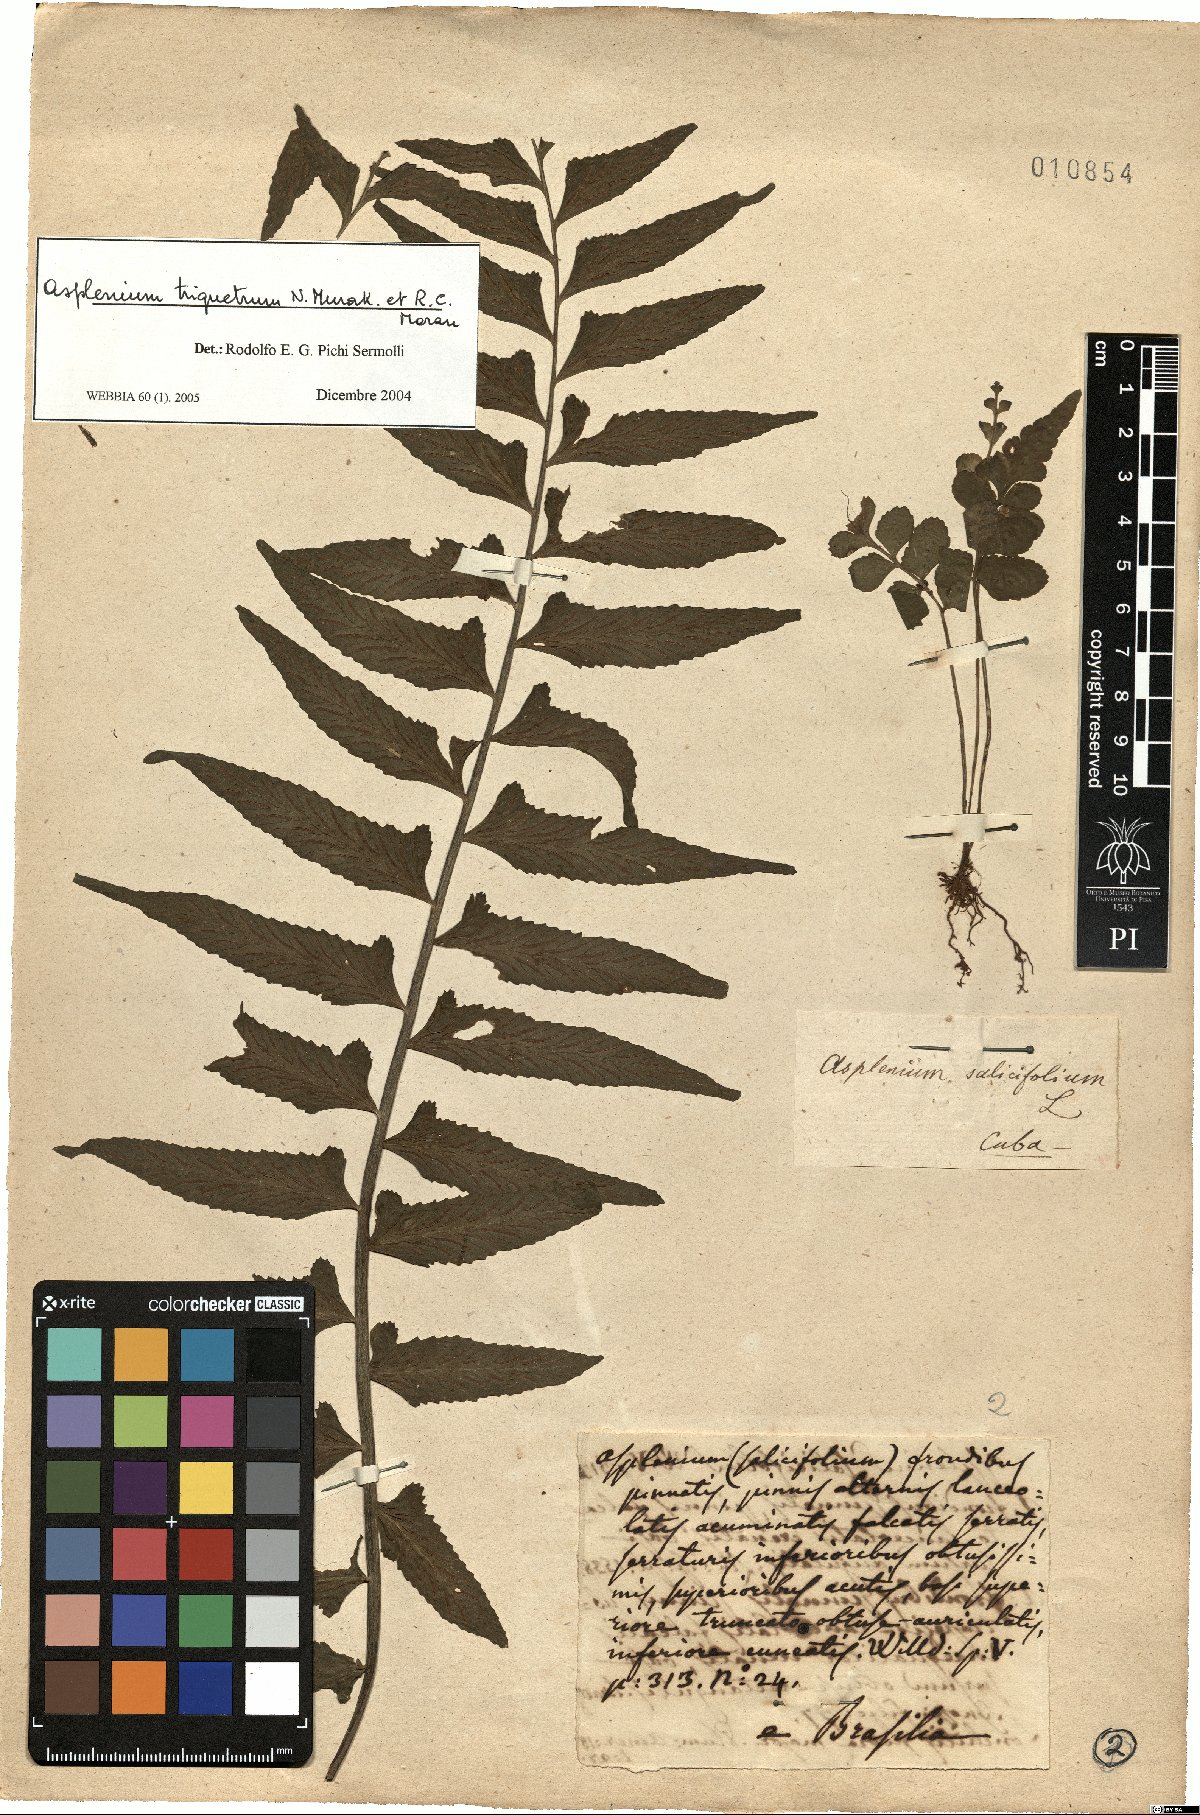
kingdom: Plantae
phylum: Tracheophyta
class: Polypodiopsida
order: Polypodiales
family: Aspleniaceae
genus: Hymenasplenium
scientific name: Hymenasplenium triquetrum
